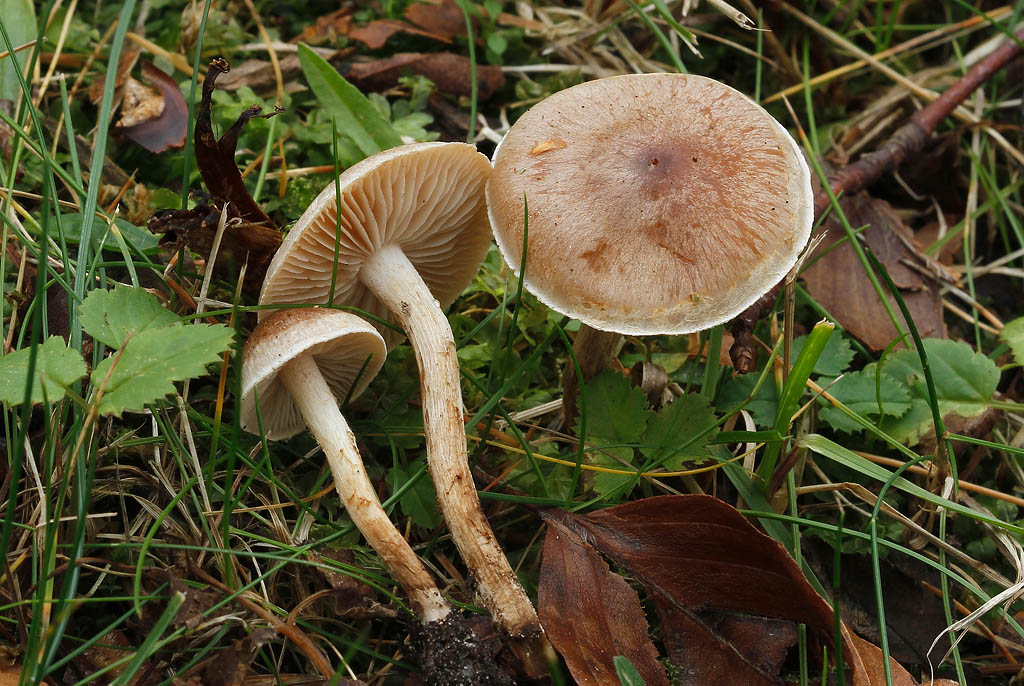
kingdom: Fungi
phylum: Basidiomycota
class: Agaricomycetes
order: Agaricales
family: Hymenogastraceae
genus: Hebeloma
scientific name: Hebeloma mesophaeum
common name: lerbrun tåreblad
